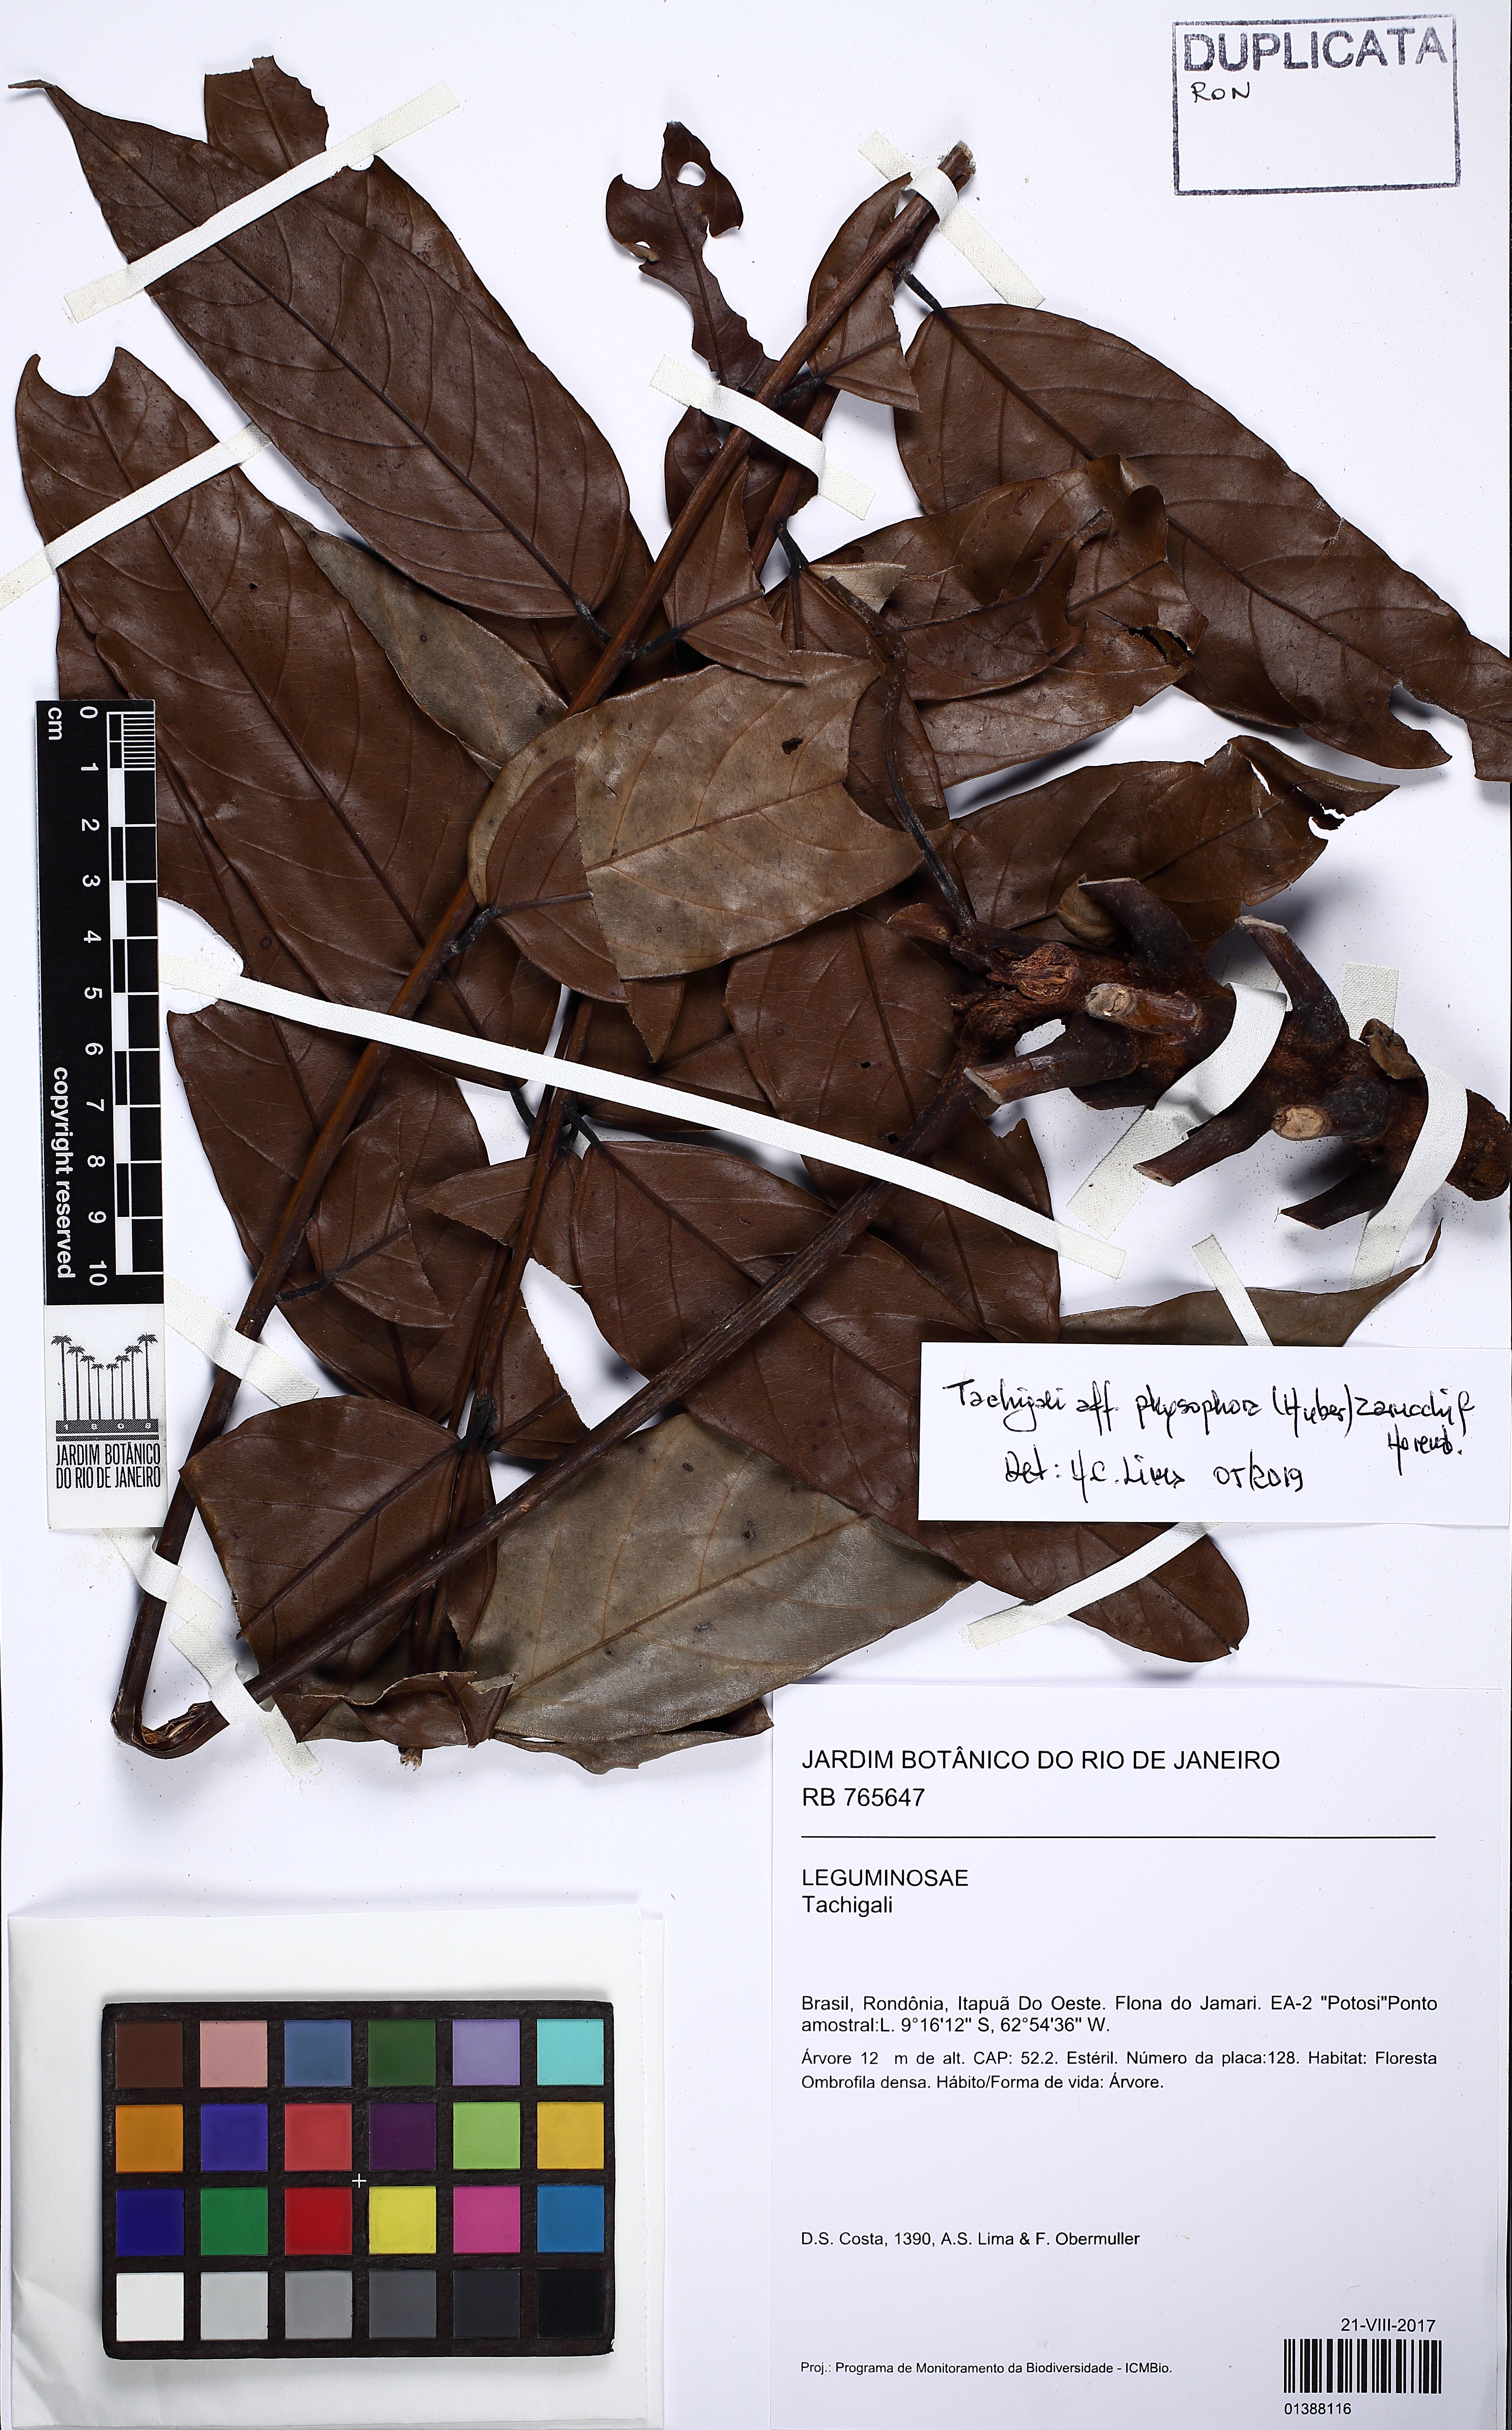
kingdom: Plantae
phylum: Tracheophyta
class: Magnoliopsida
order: Fabales
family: Fabaceae
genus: Tachigali
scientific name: Tachigali physophora
